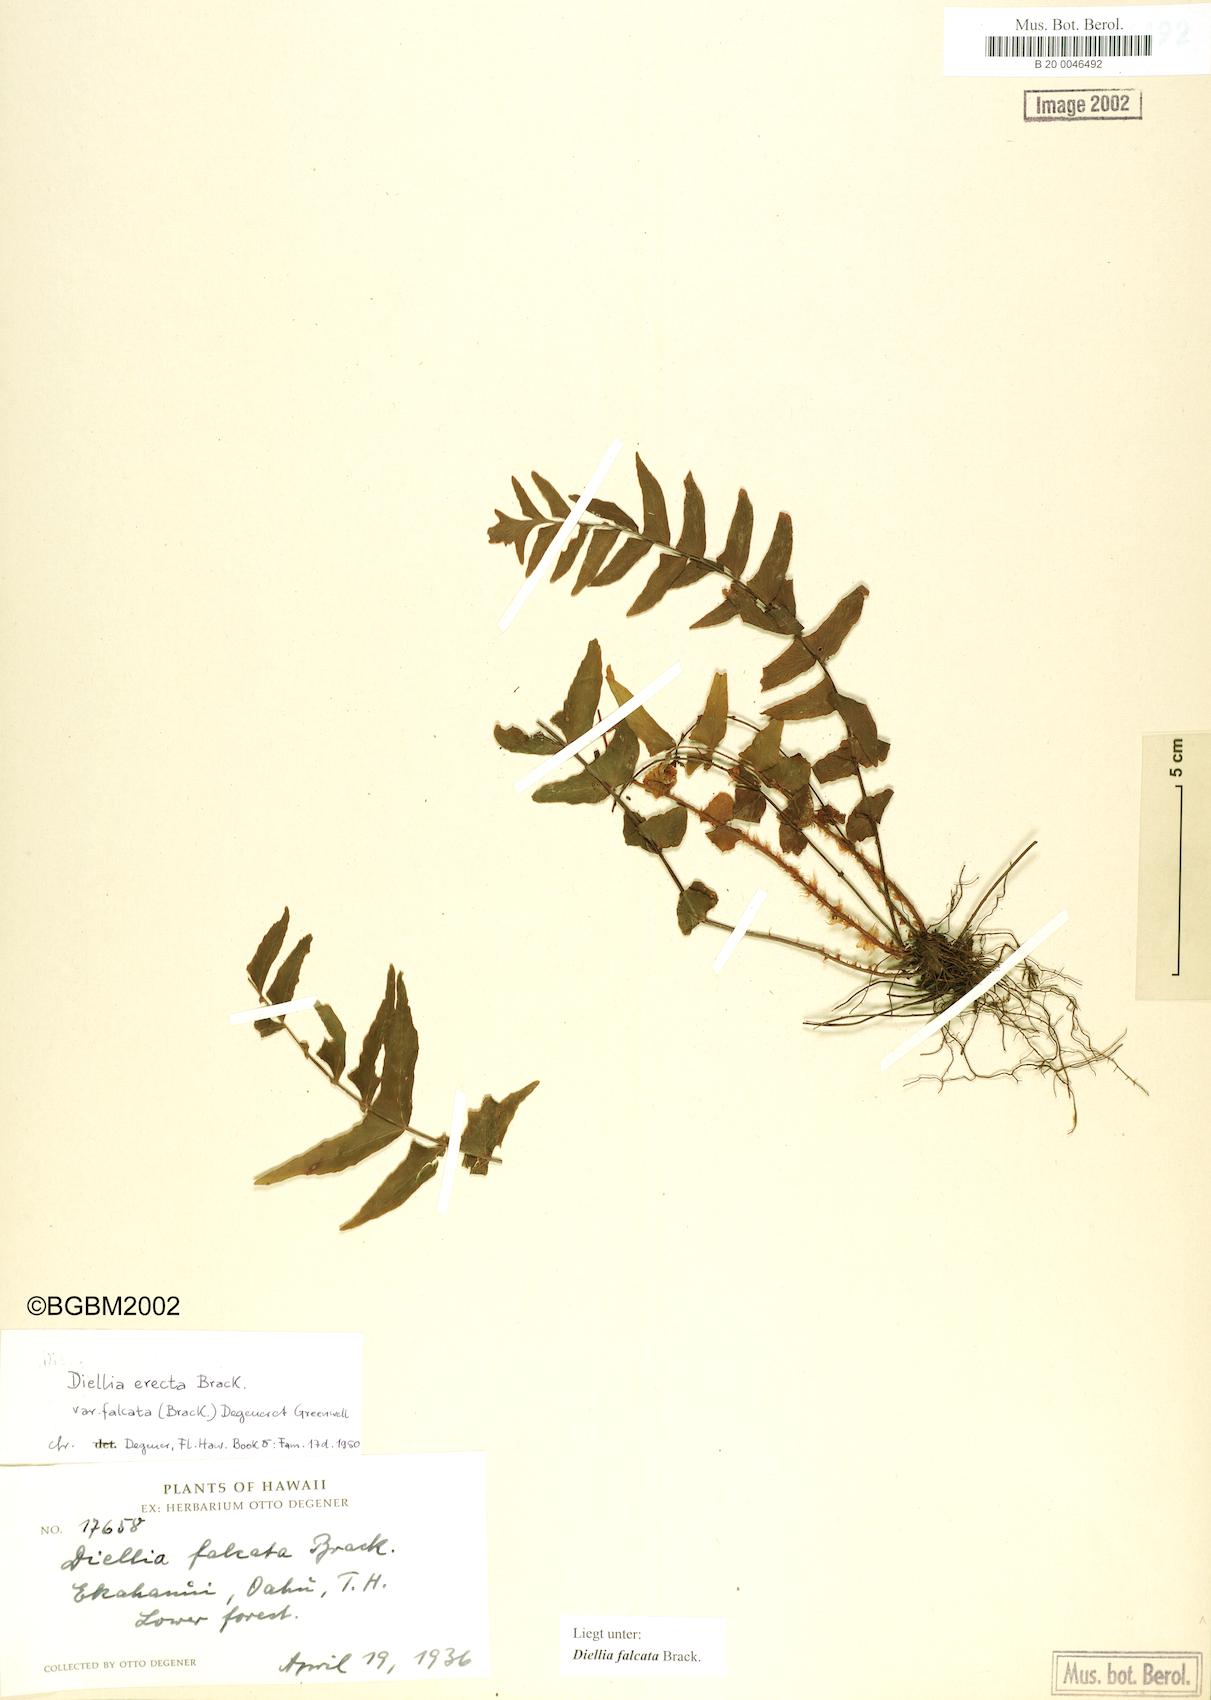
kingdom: Plantae
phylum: Tracheophyta
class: Polypodiopsida
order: Polypodiales
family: Aspleniaceae
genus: Asplenium
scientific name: Asplenium dielfalcatum
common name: Sickle island spleenwort
